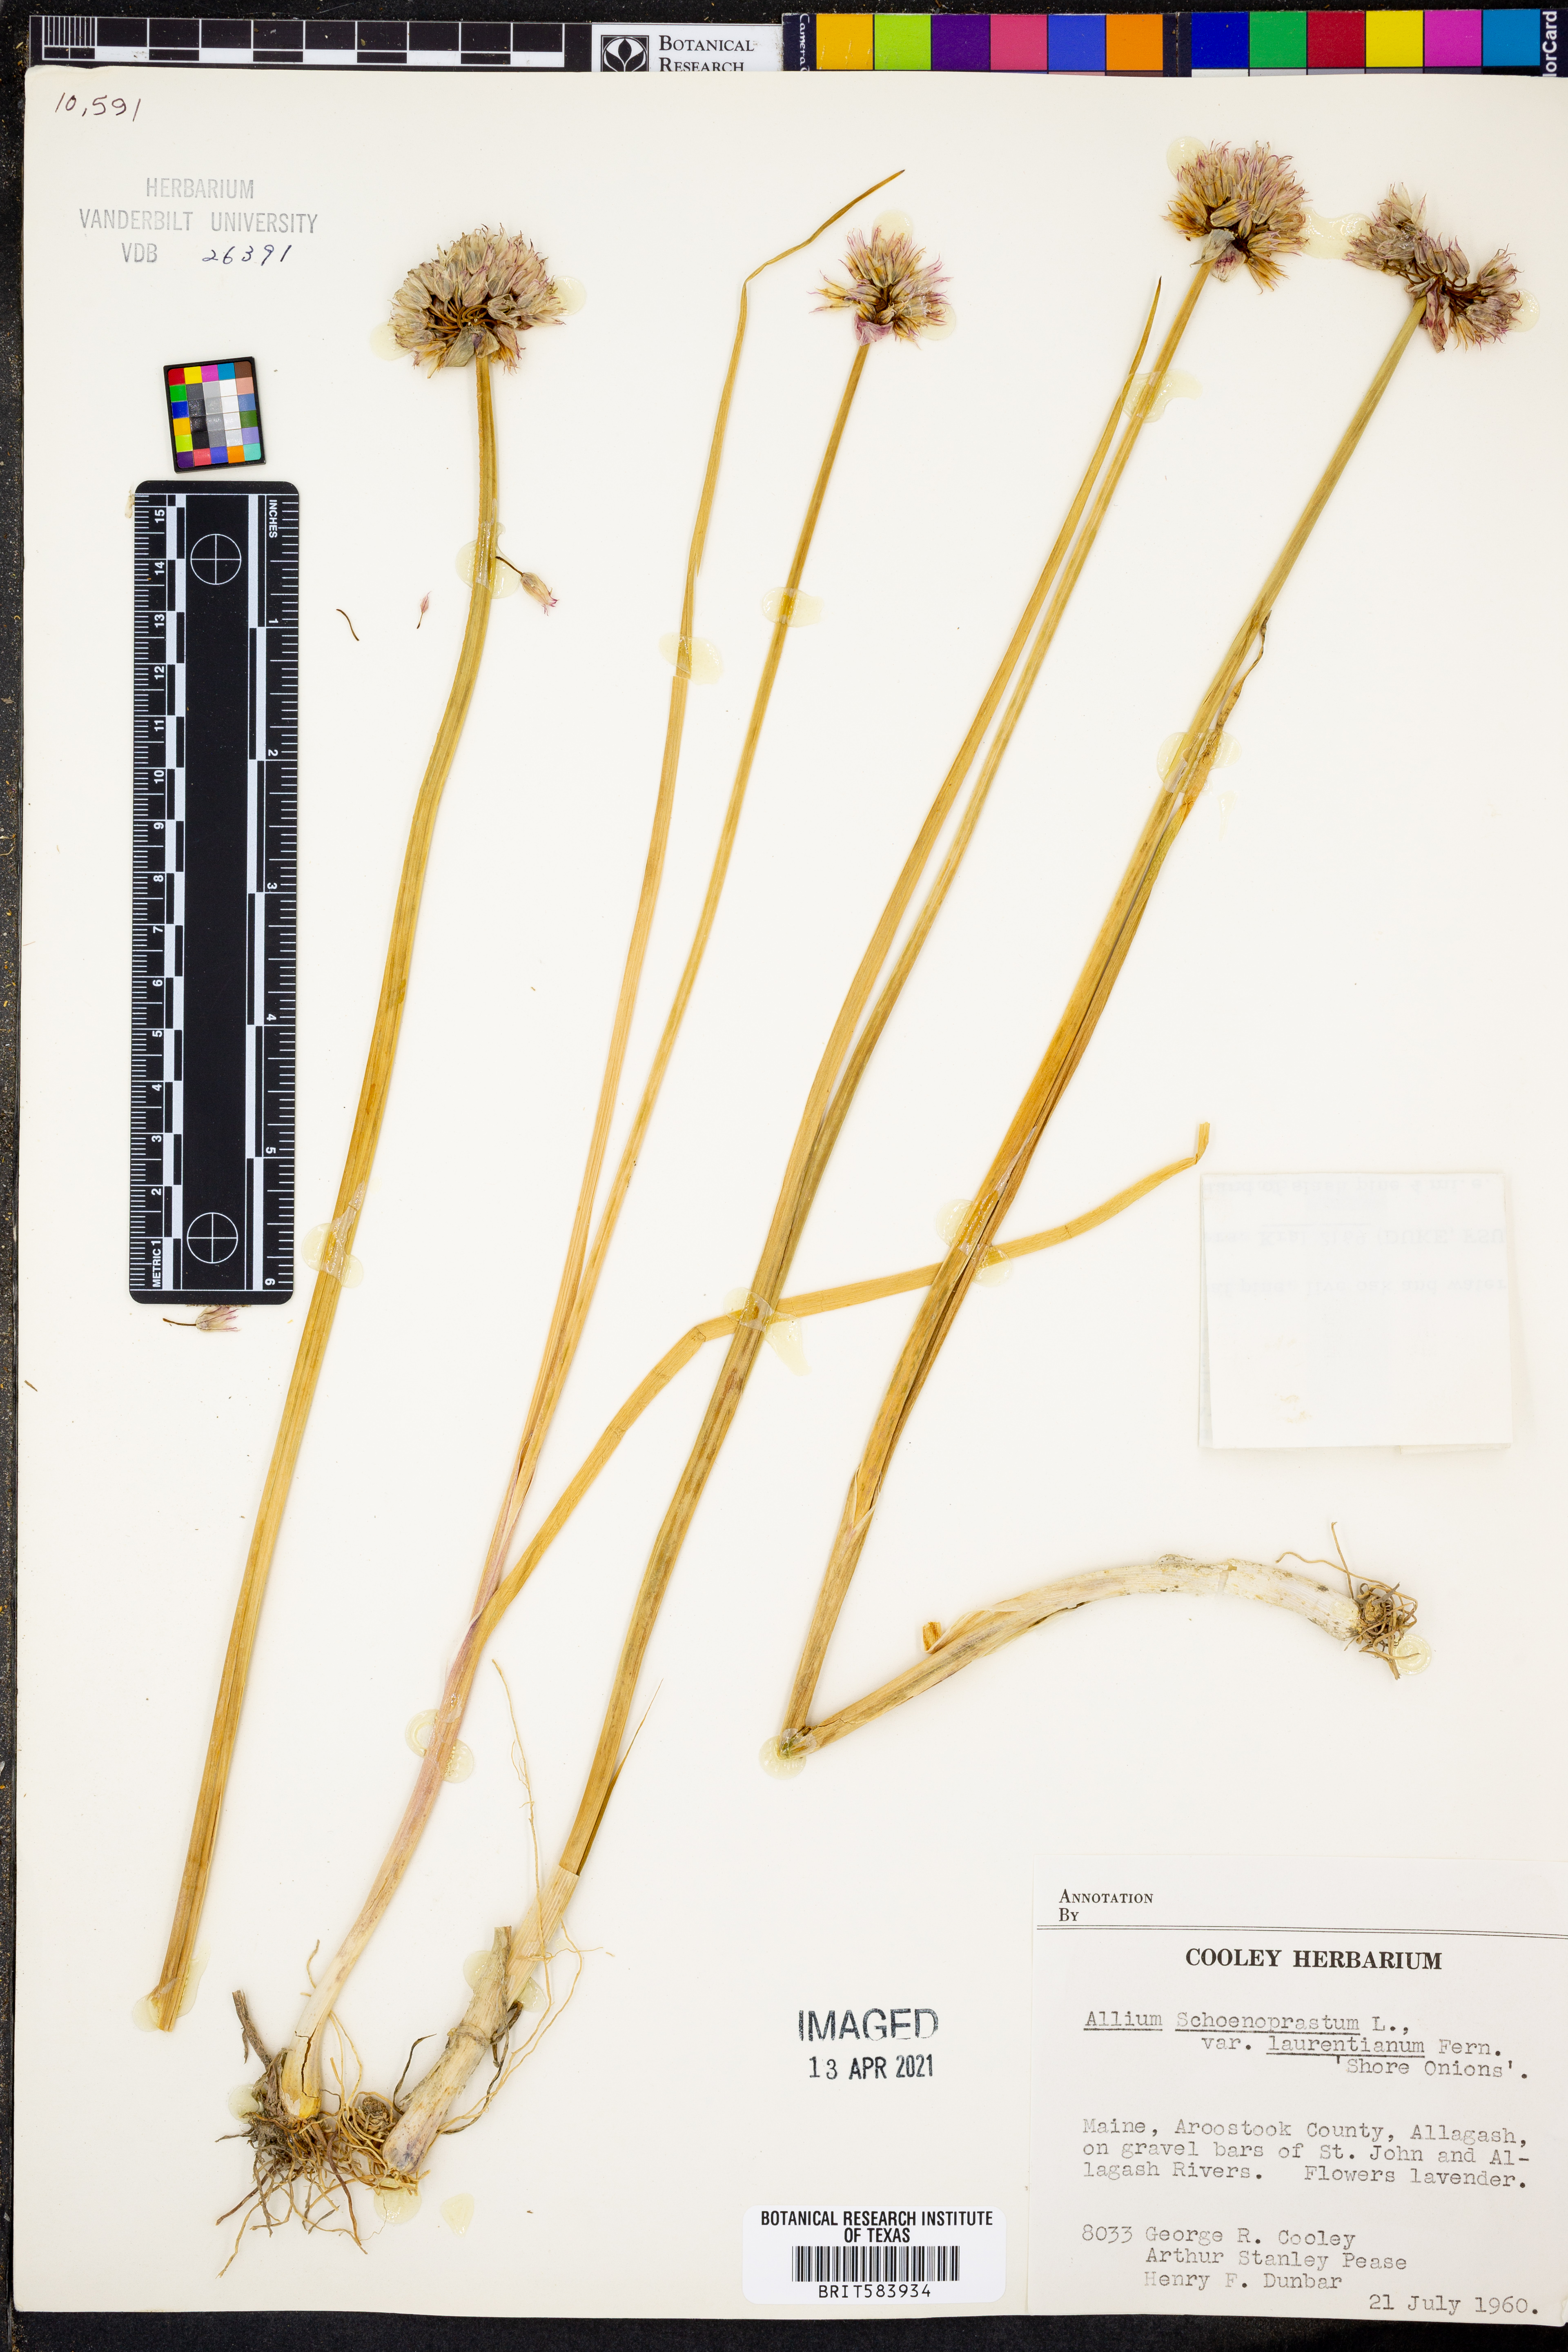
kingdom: Plantae
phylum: Tracheophyta
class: Liliopsida
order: Asparagales
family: Amaryllidaceae
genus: Allium
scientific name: Allium schoenoprasum
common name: Chives
